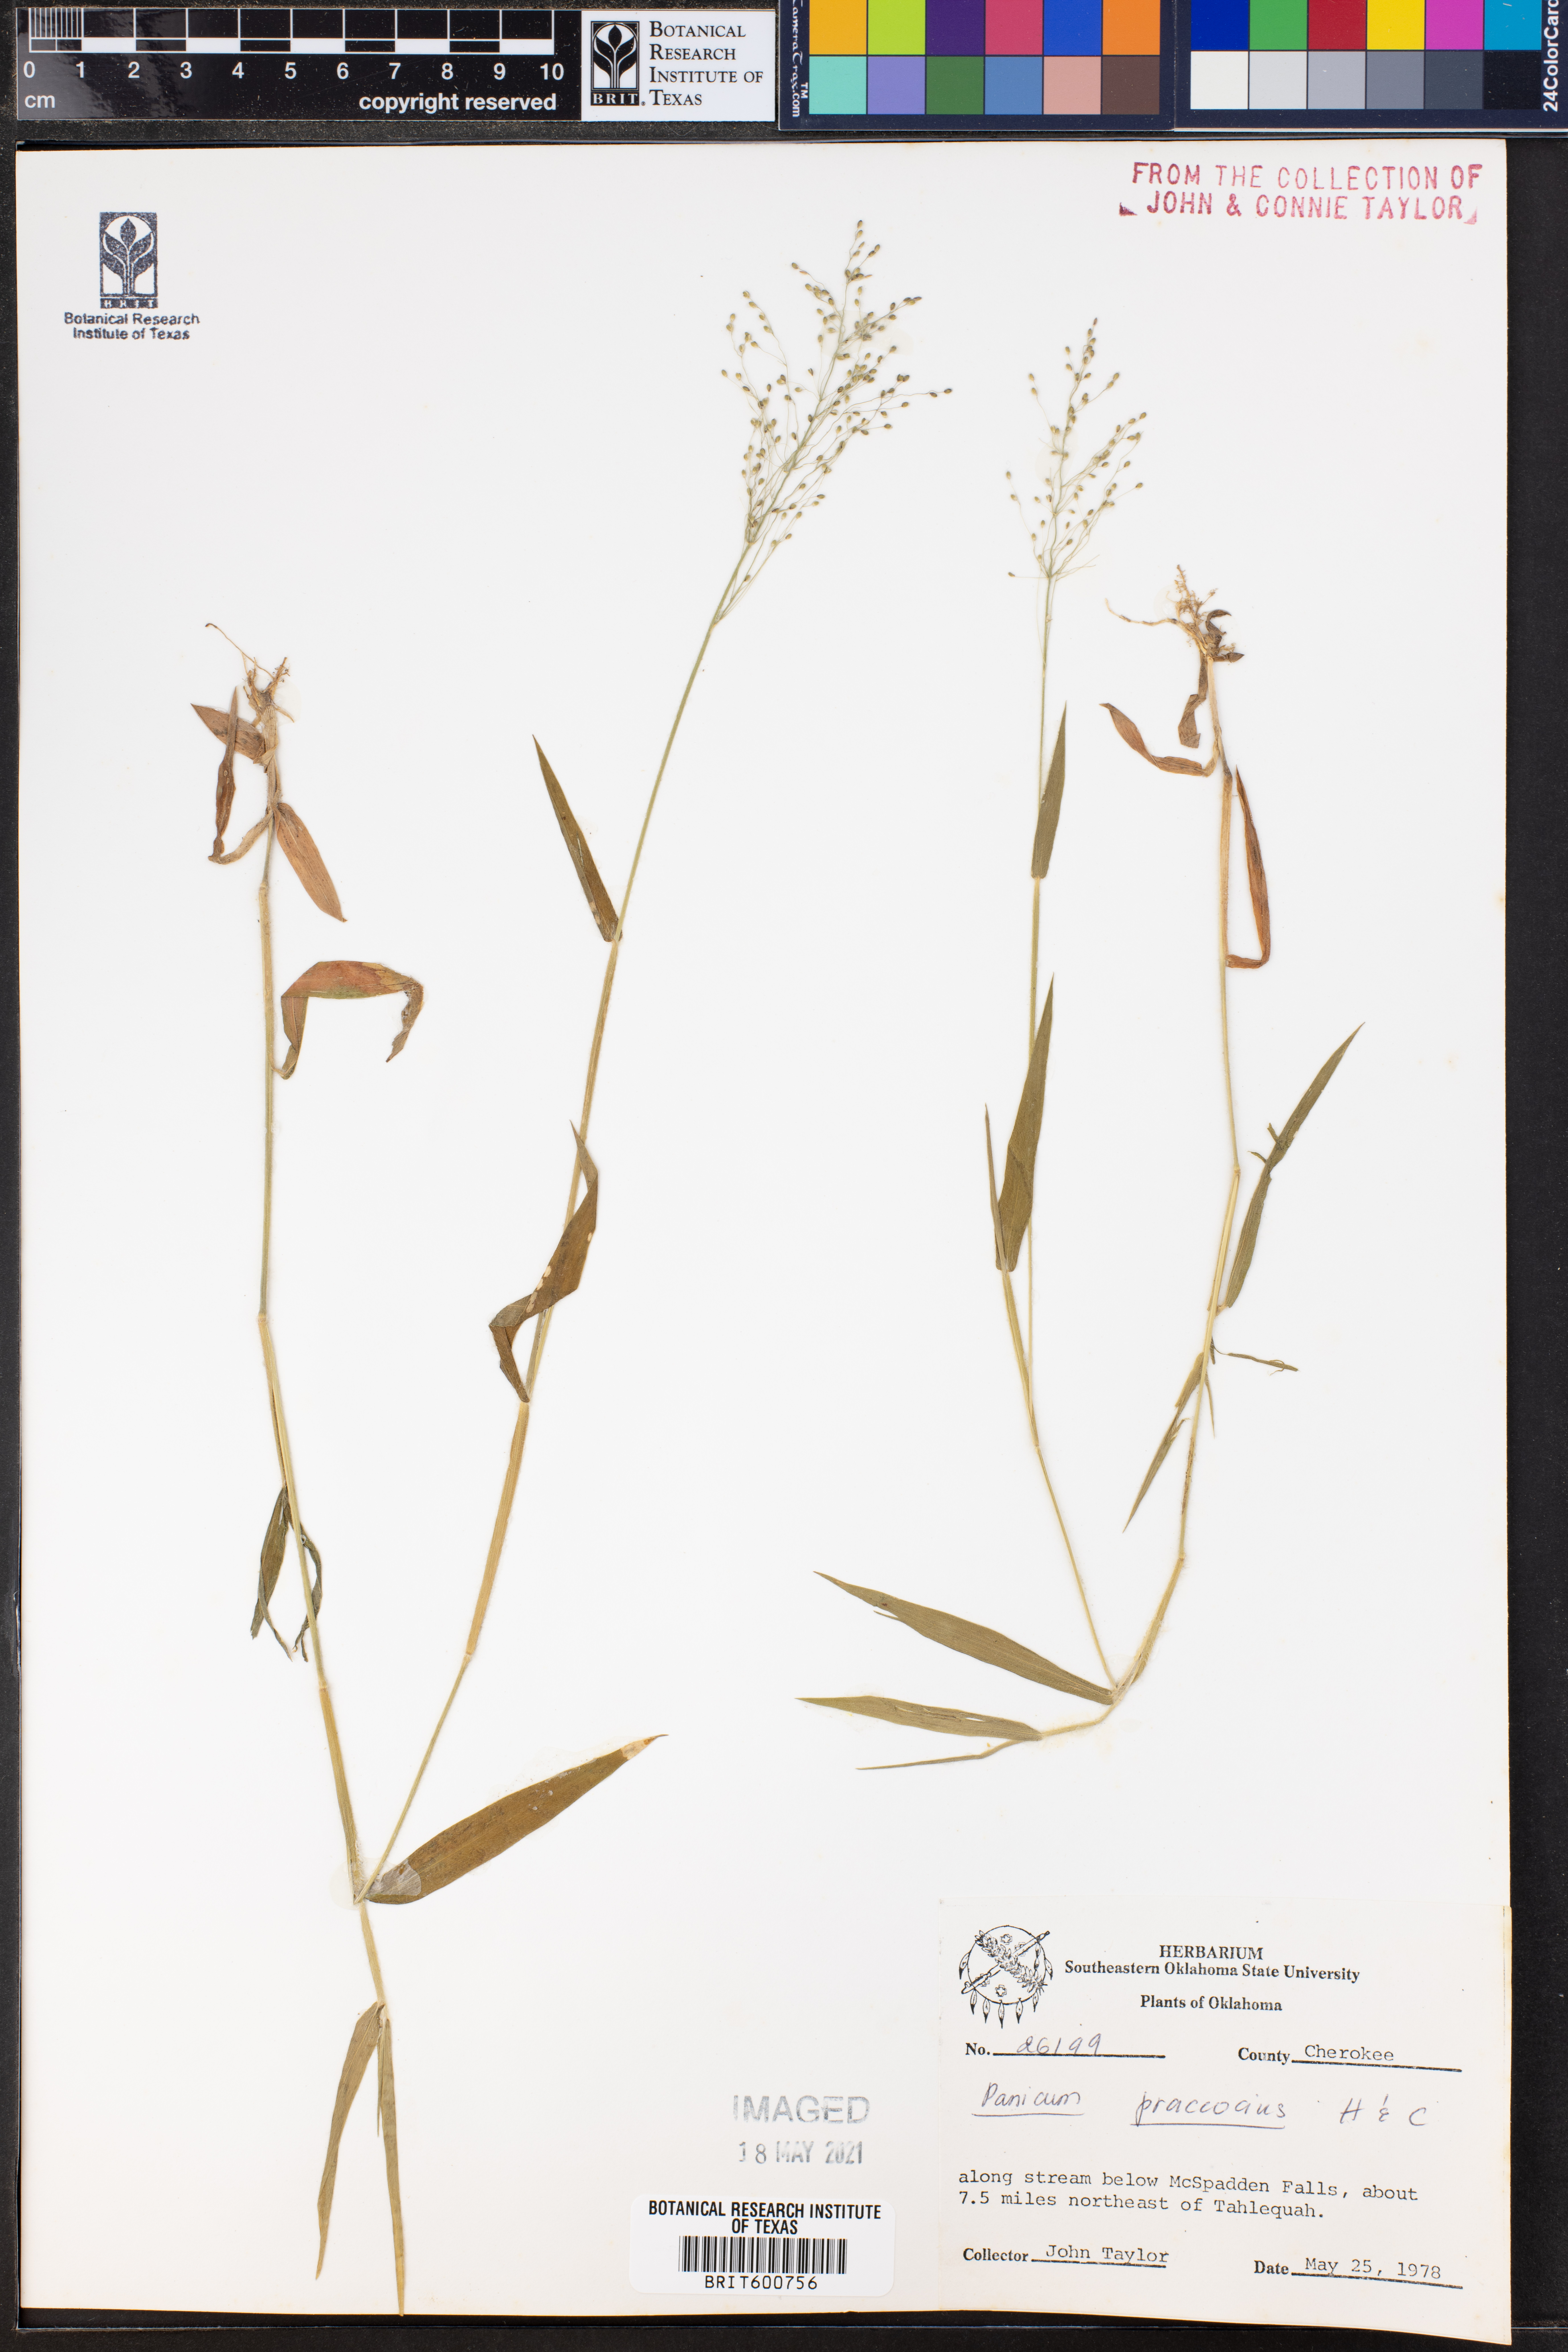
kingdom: Plantae
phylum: Tracheophyta
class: Liliopsida
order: Poales
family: Poaceae
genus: Dichanthelium
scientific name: Dichanthelium praecocius
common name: Early-branching panicgrass
